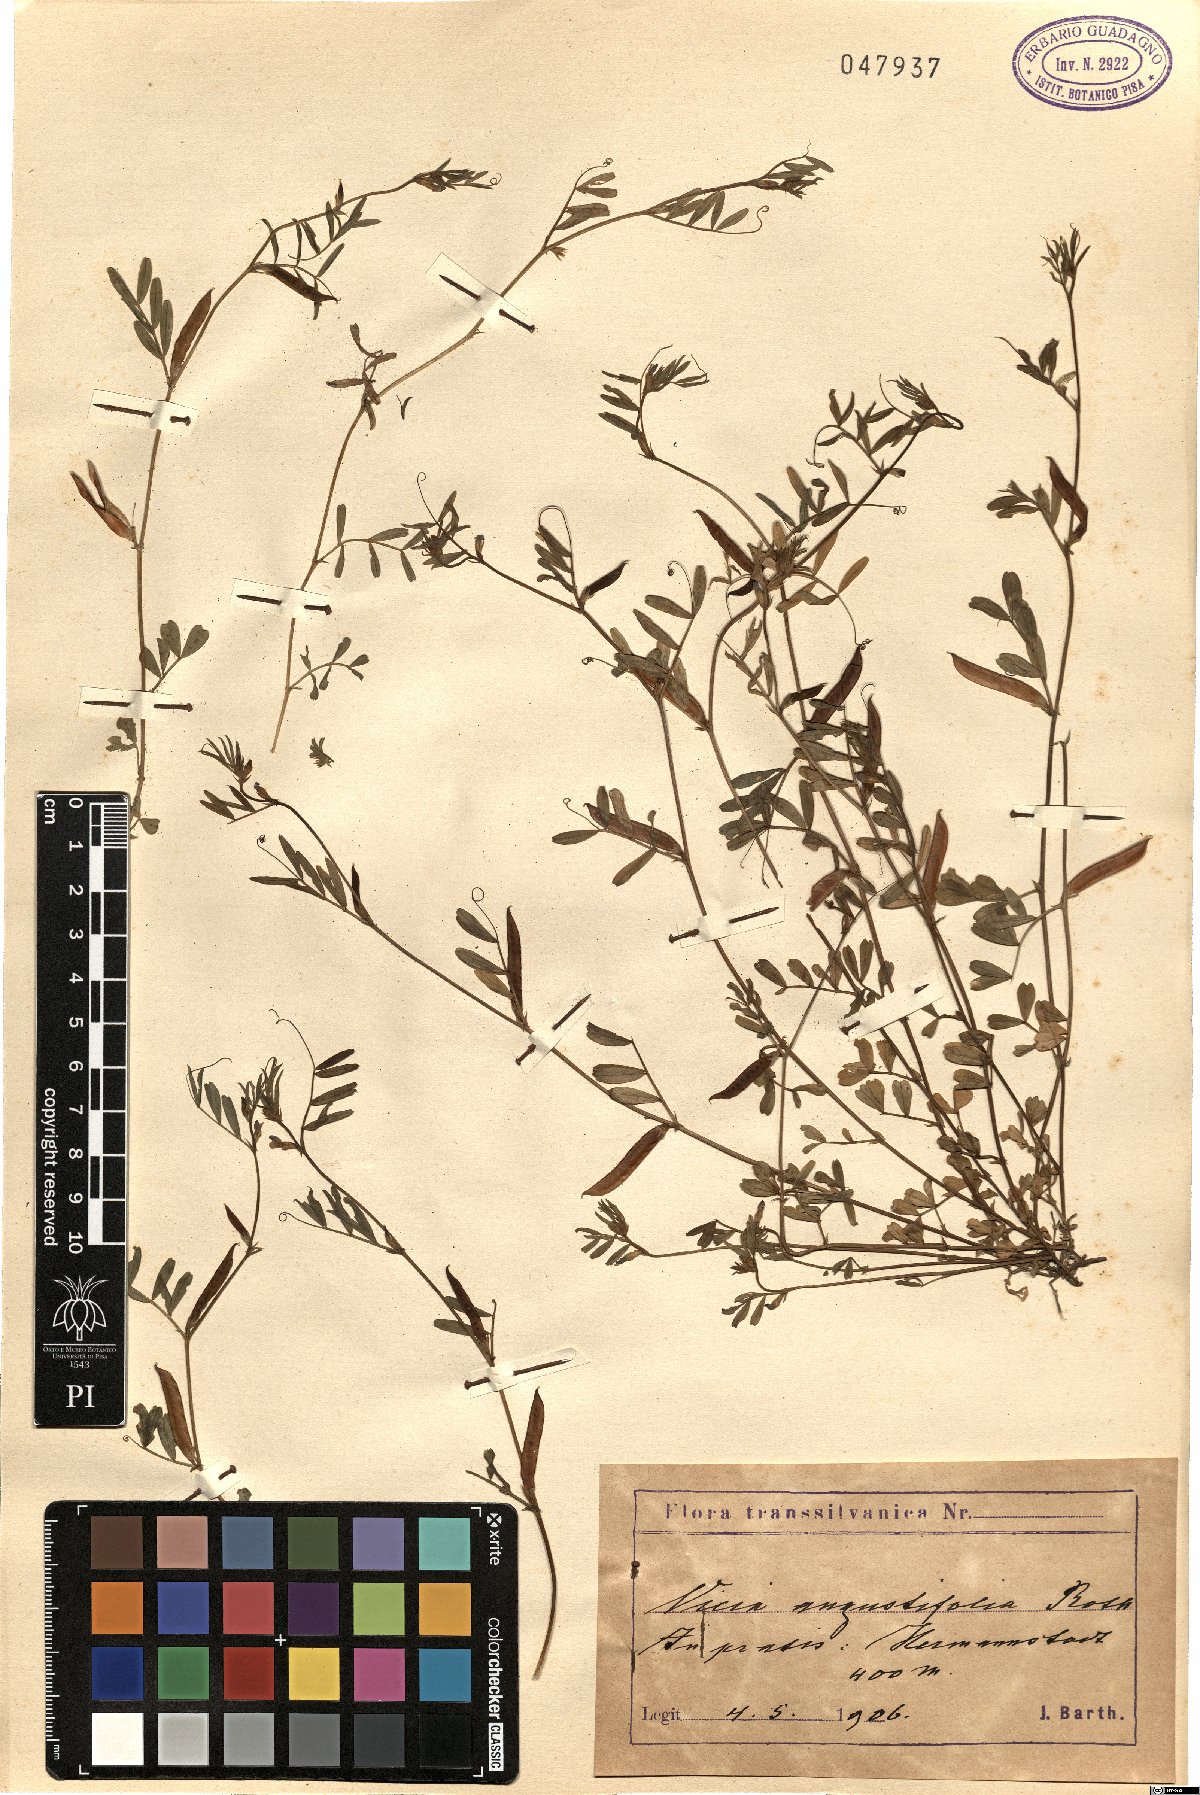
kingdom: Plantae
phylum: Tracheophyta
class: Magnoliopsida
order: Fabales
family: Fabaceae
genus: Vicia
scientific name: Vicia sativa
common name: Garden vetch
